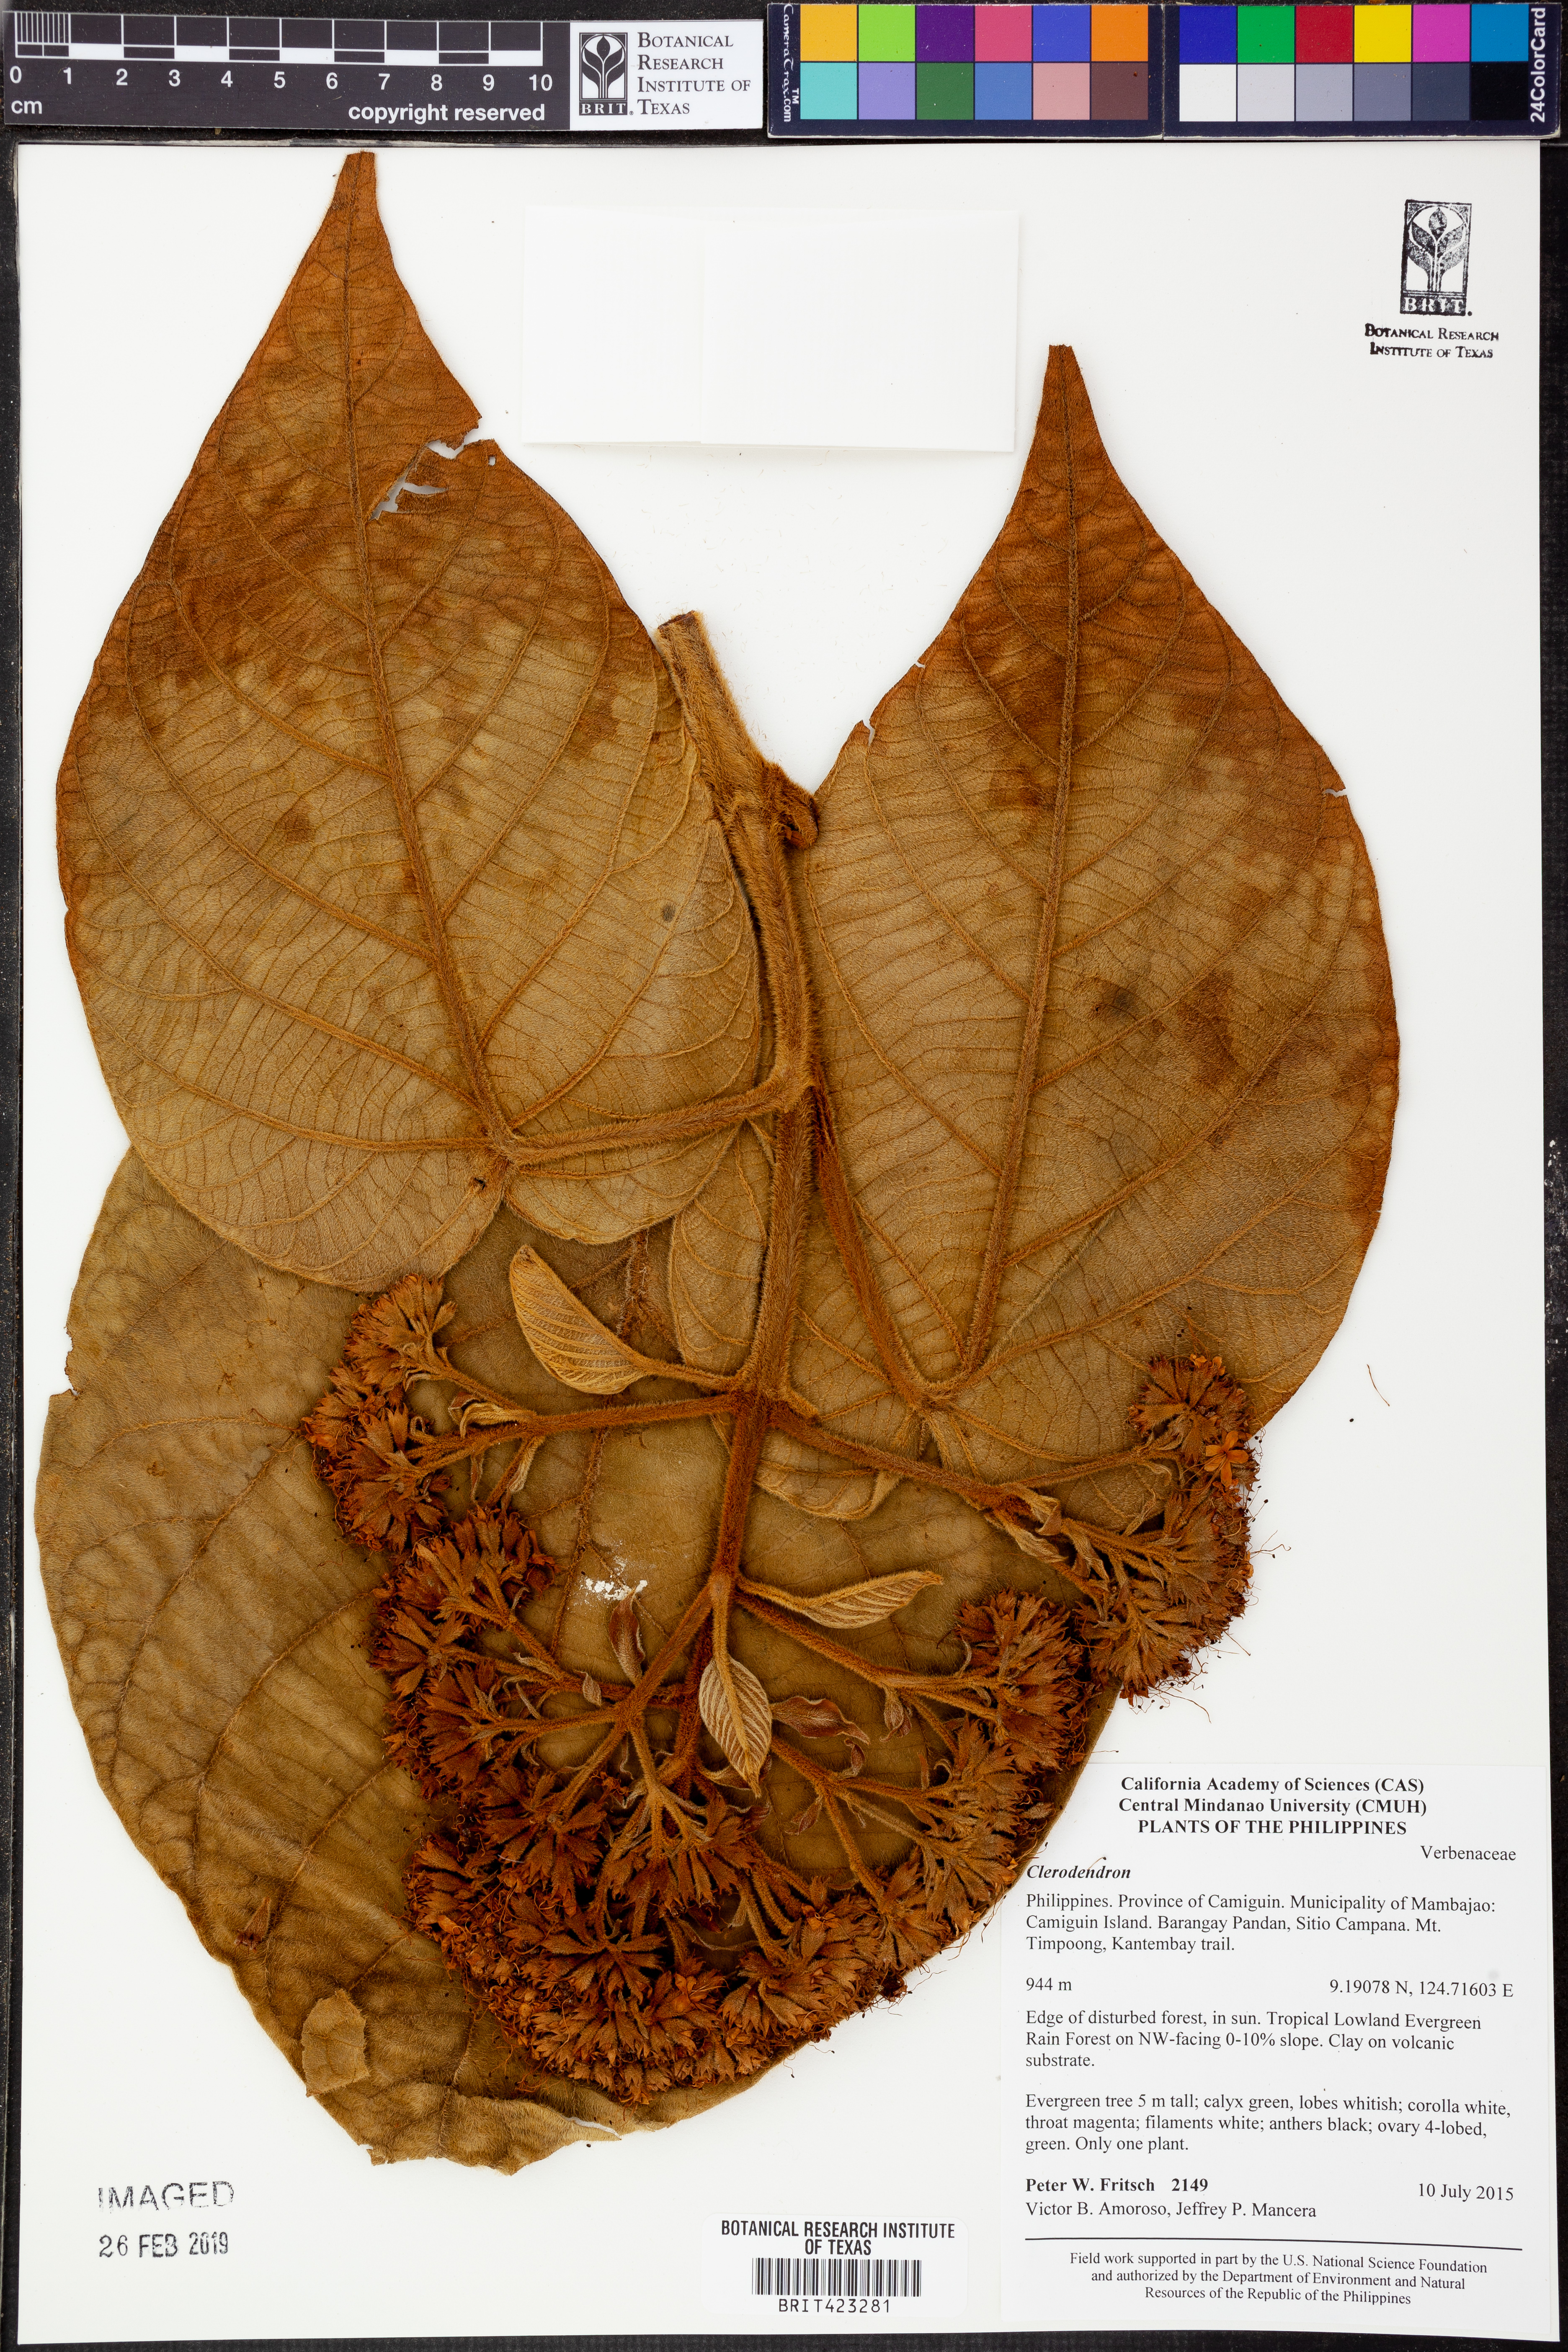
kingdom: Plantae
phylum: Tracheophyta
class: Magnoliopsida
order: Lamiales
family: Lamiaceae
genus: Clerodendrum
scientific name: Clerodendrum
